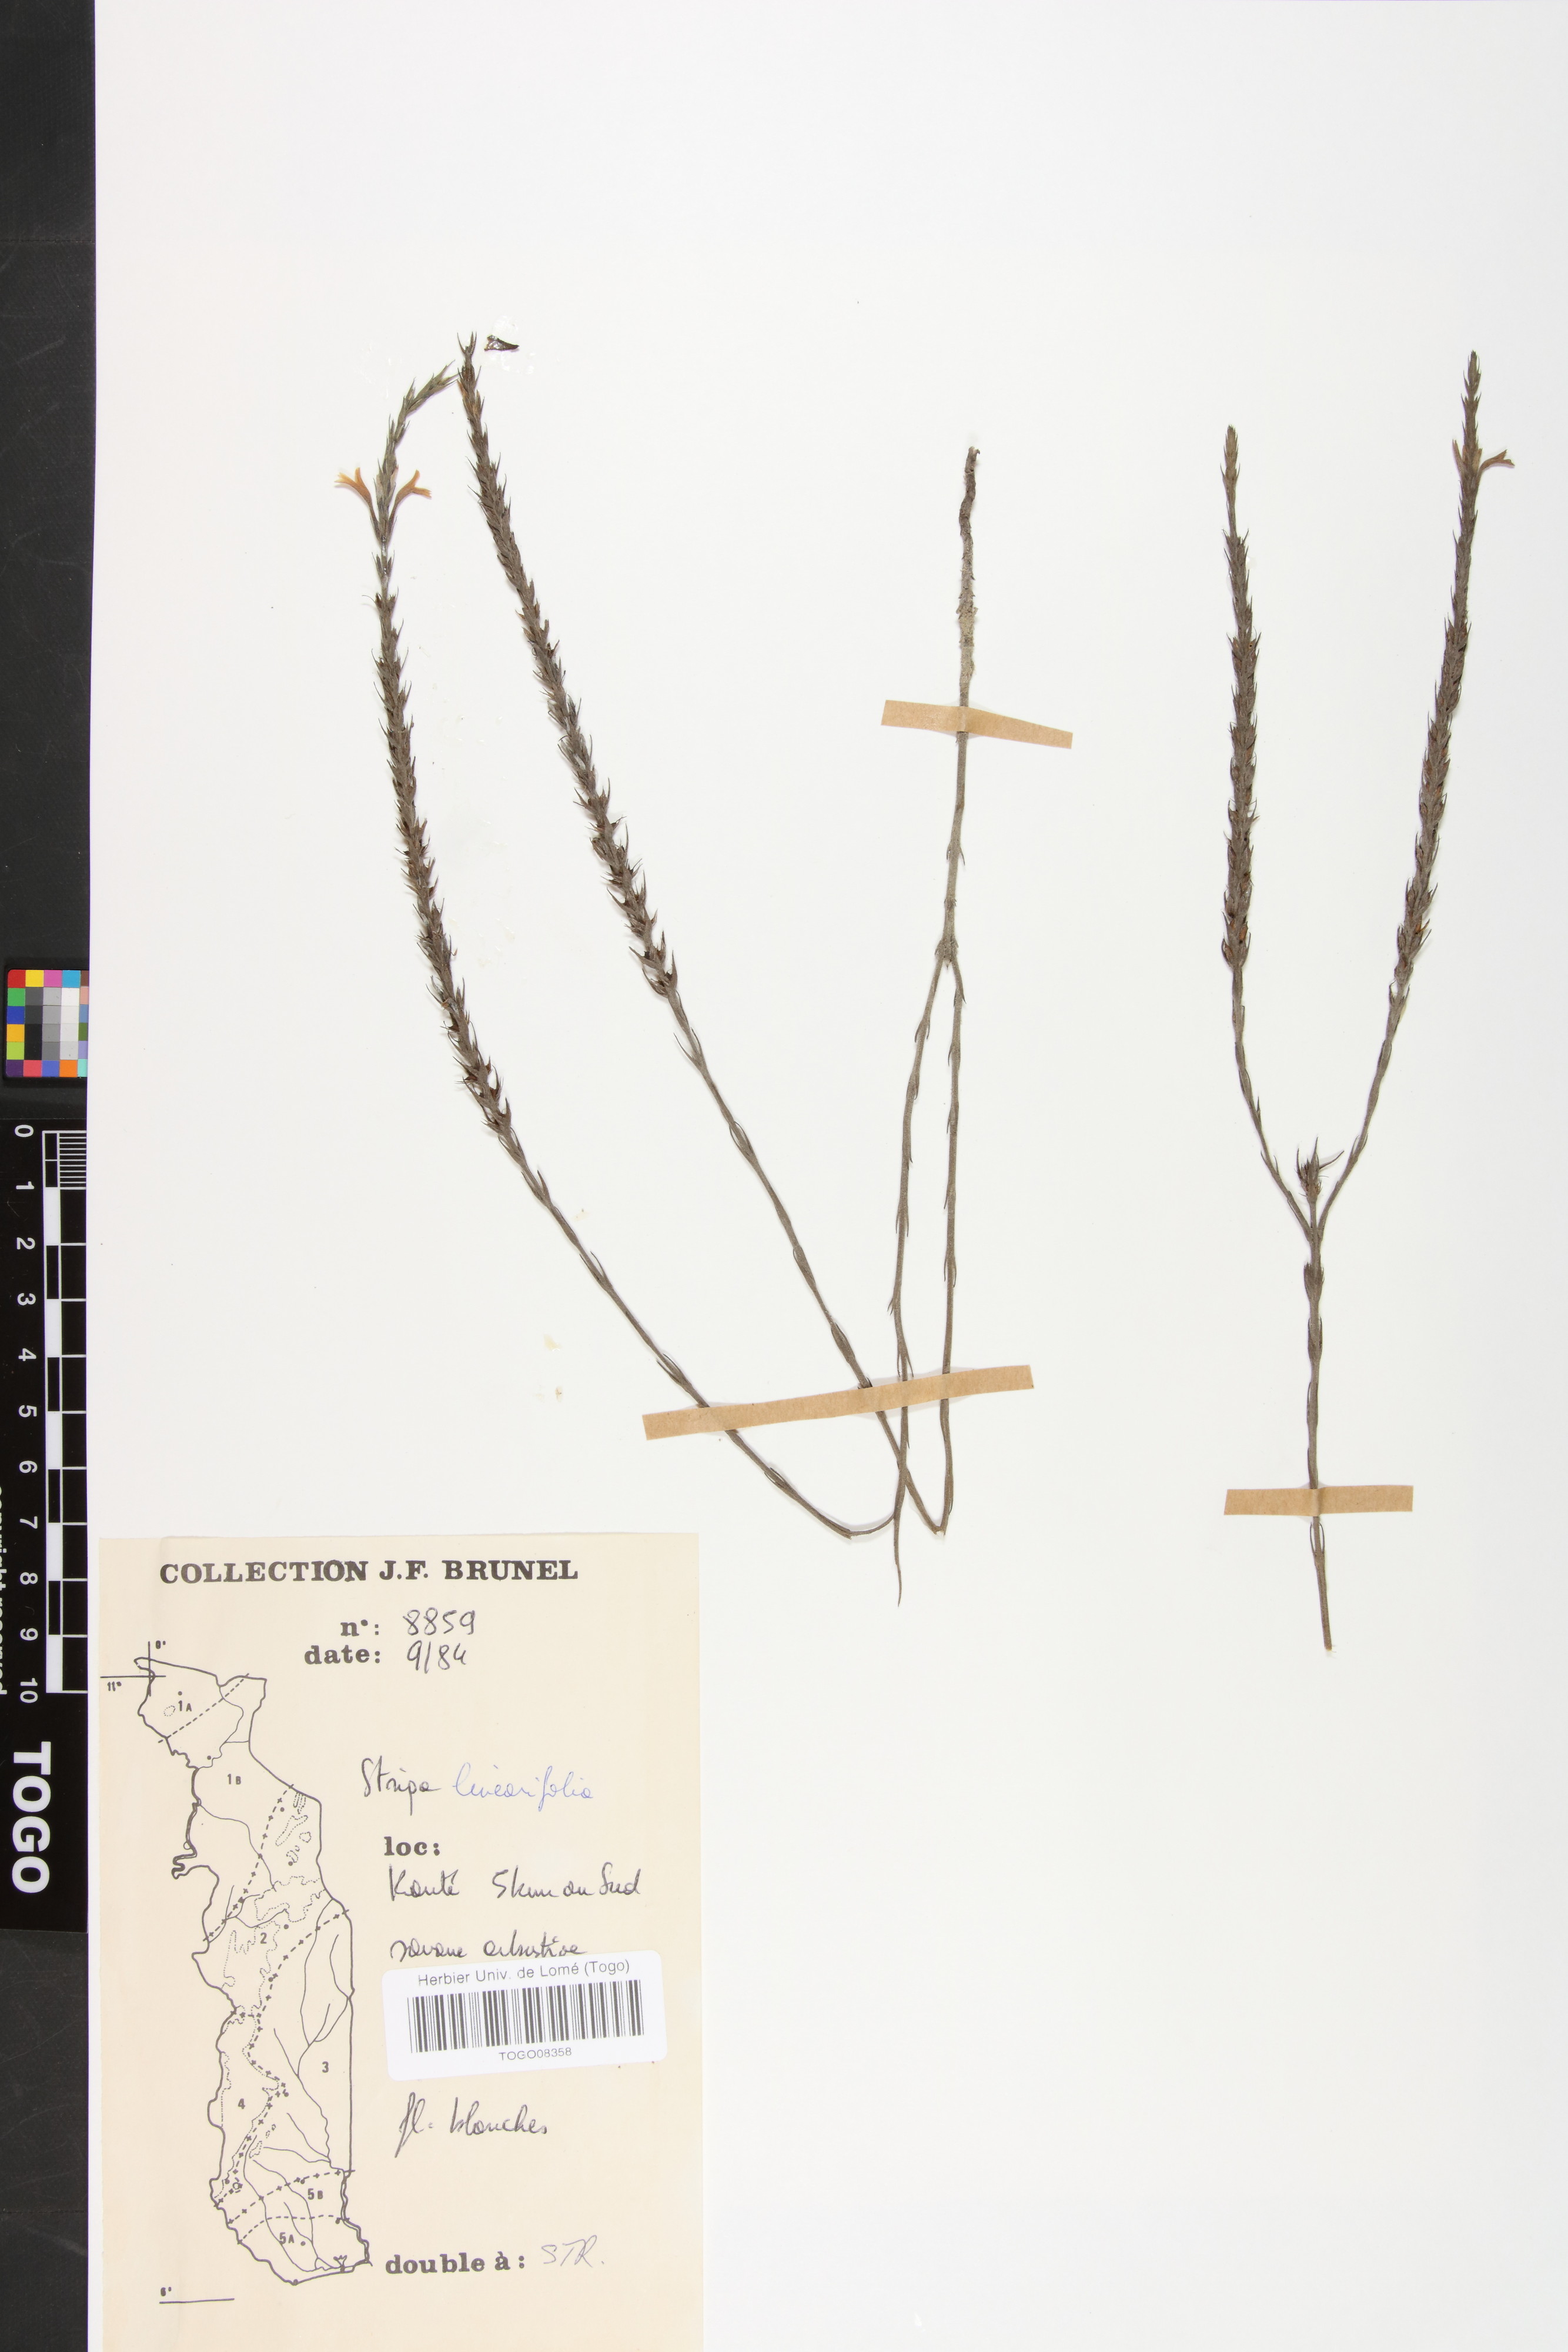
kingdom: Plantae
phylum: Tracheophyta
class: Magnoliopsida
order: Lamiales
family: Orobanchaceae
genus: Striga
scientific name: Striga linearifolia
